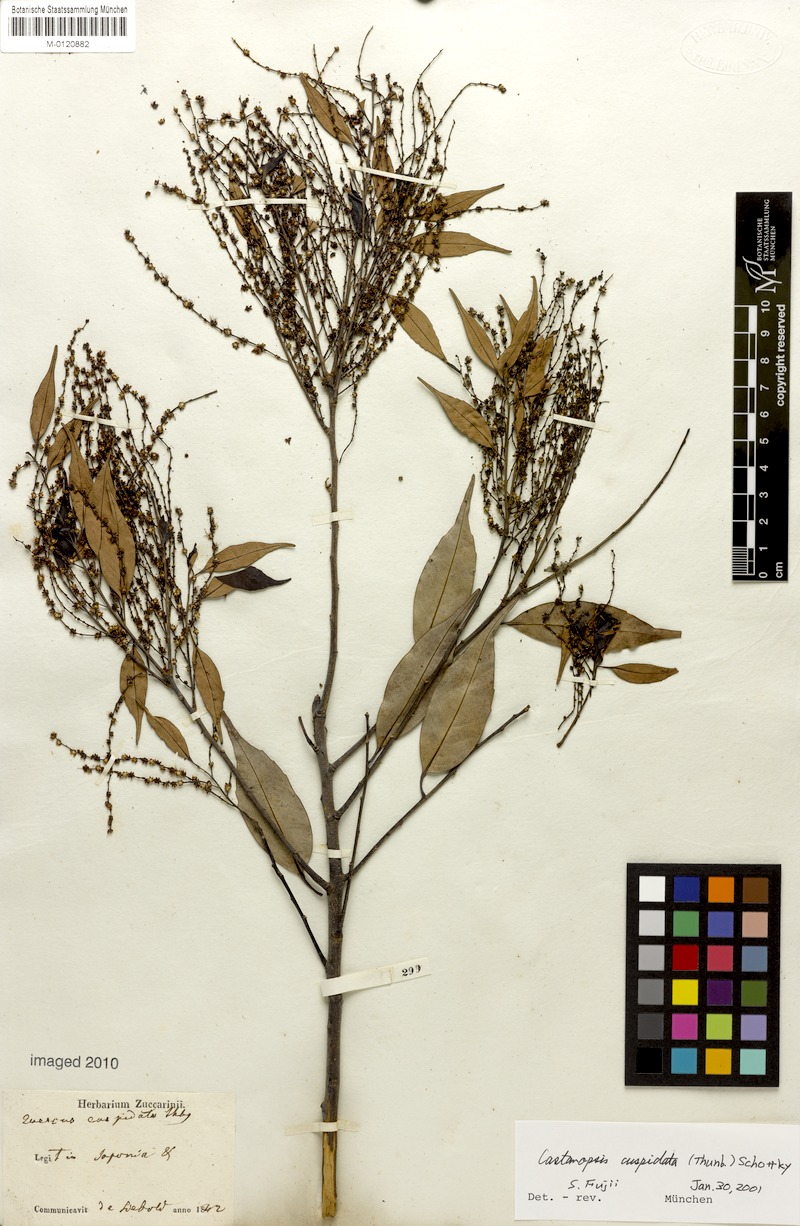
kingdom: Plantae
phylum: Tracheophyta
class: Magnoliopsida
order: Fagales
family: Fagaceae
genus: Castanopsis
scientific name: Castanopsis cuspidata
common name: Japanese chinquapin
